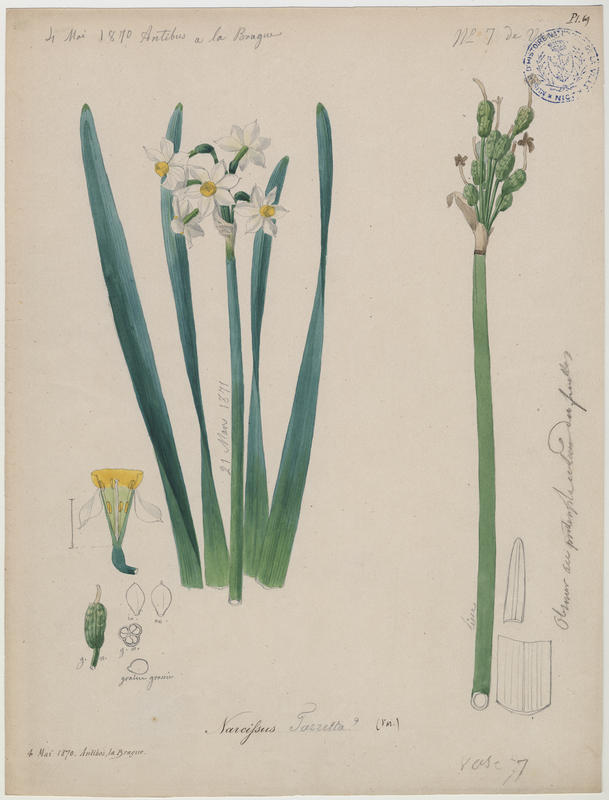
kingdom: Plantae
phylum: Tracheophyta
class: Liliopsida
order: Asparagales
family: Amaryllidaceae
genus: Narcissus
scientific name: Narcissus tazetta
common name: Bunch-flowered daffodil
